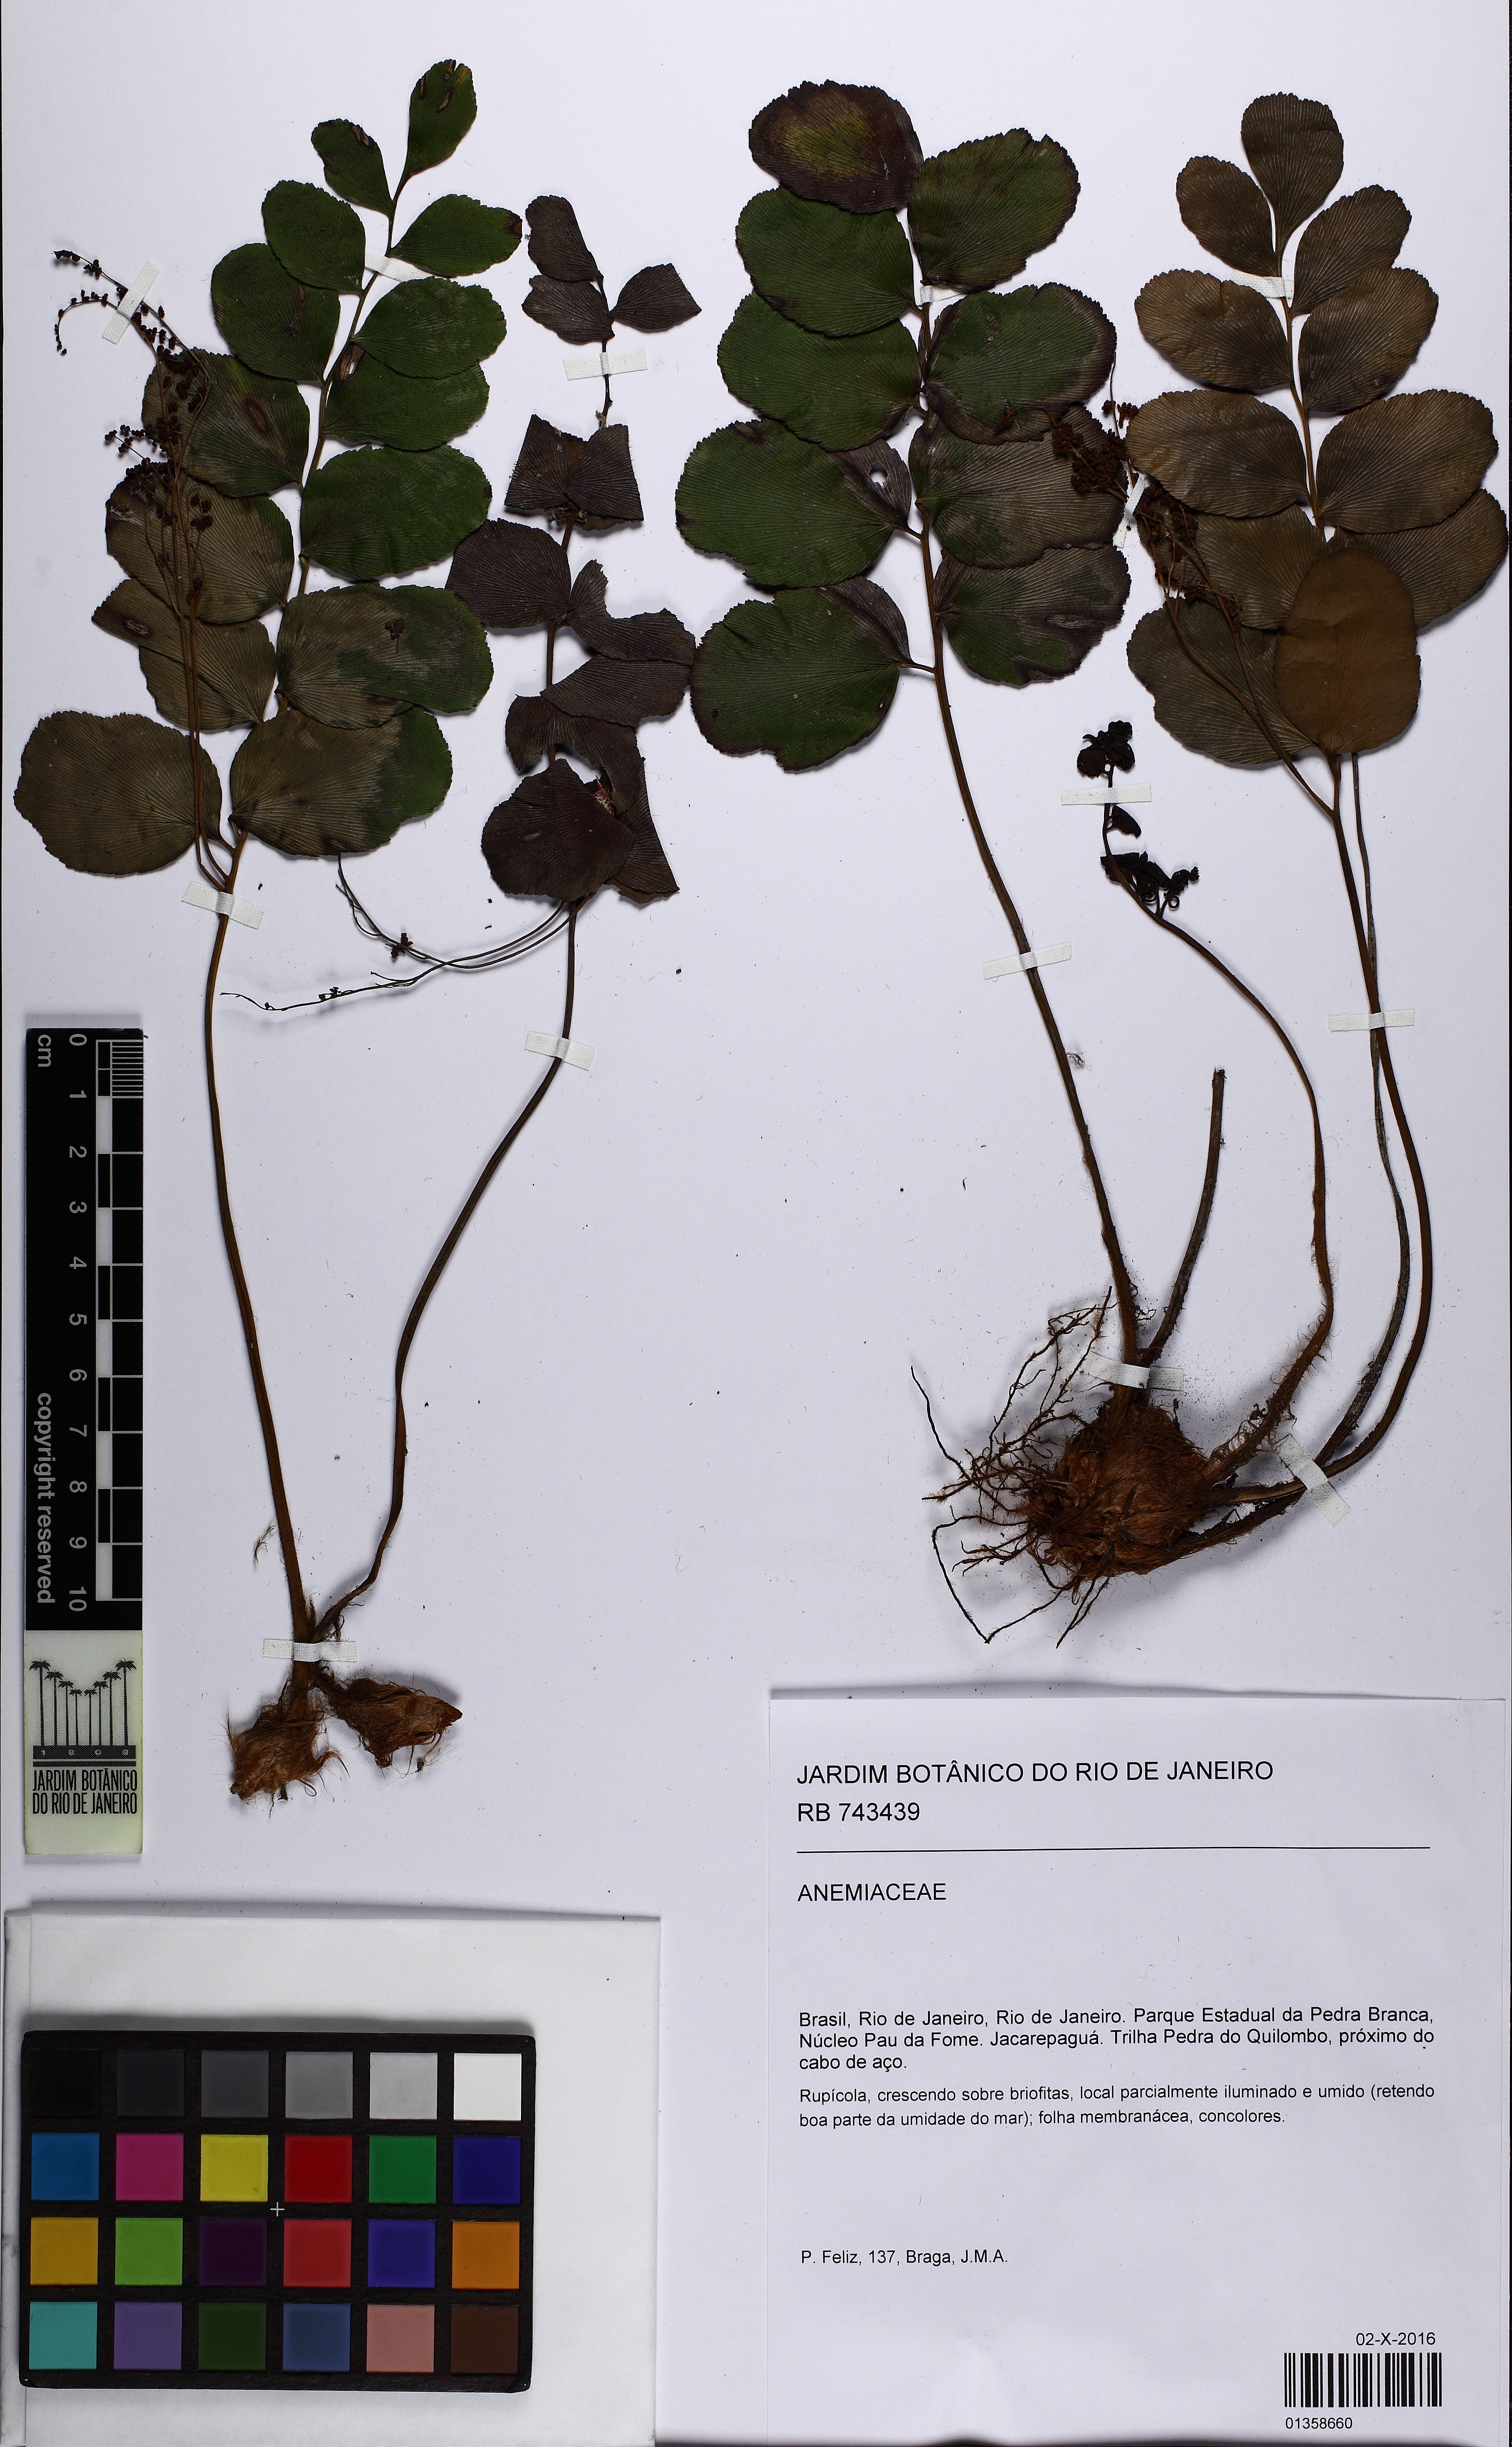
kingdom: Plantae
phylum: Tracheophyta
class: Polypodiopsida
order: Schizaeales
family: Anemiaceae
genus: Anemia
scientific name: Anemia gardneri
